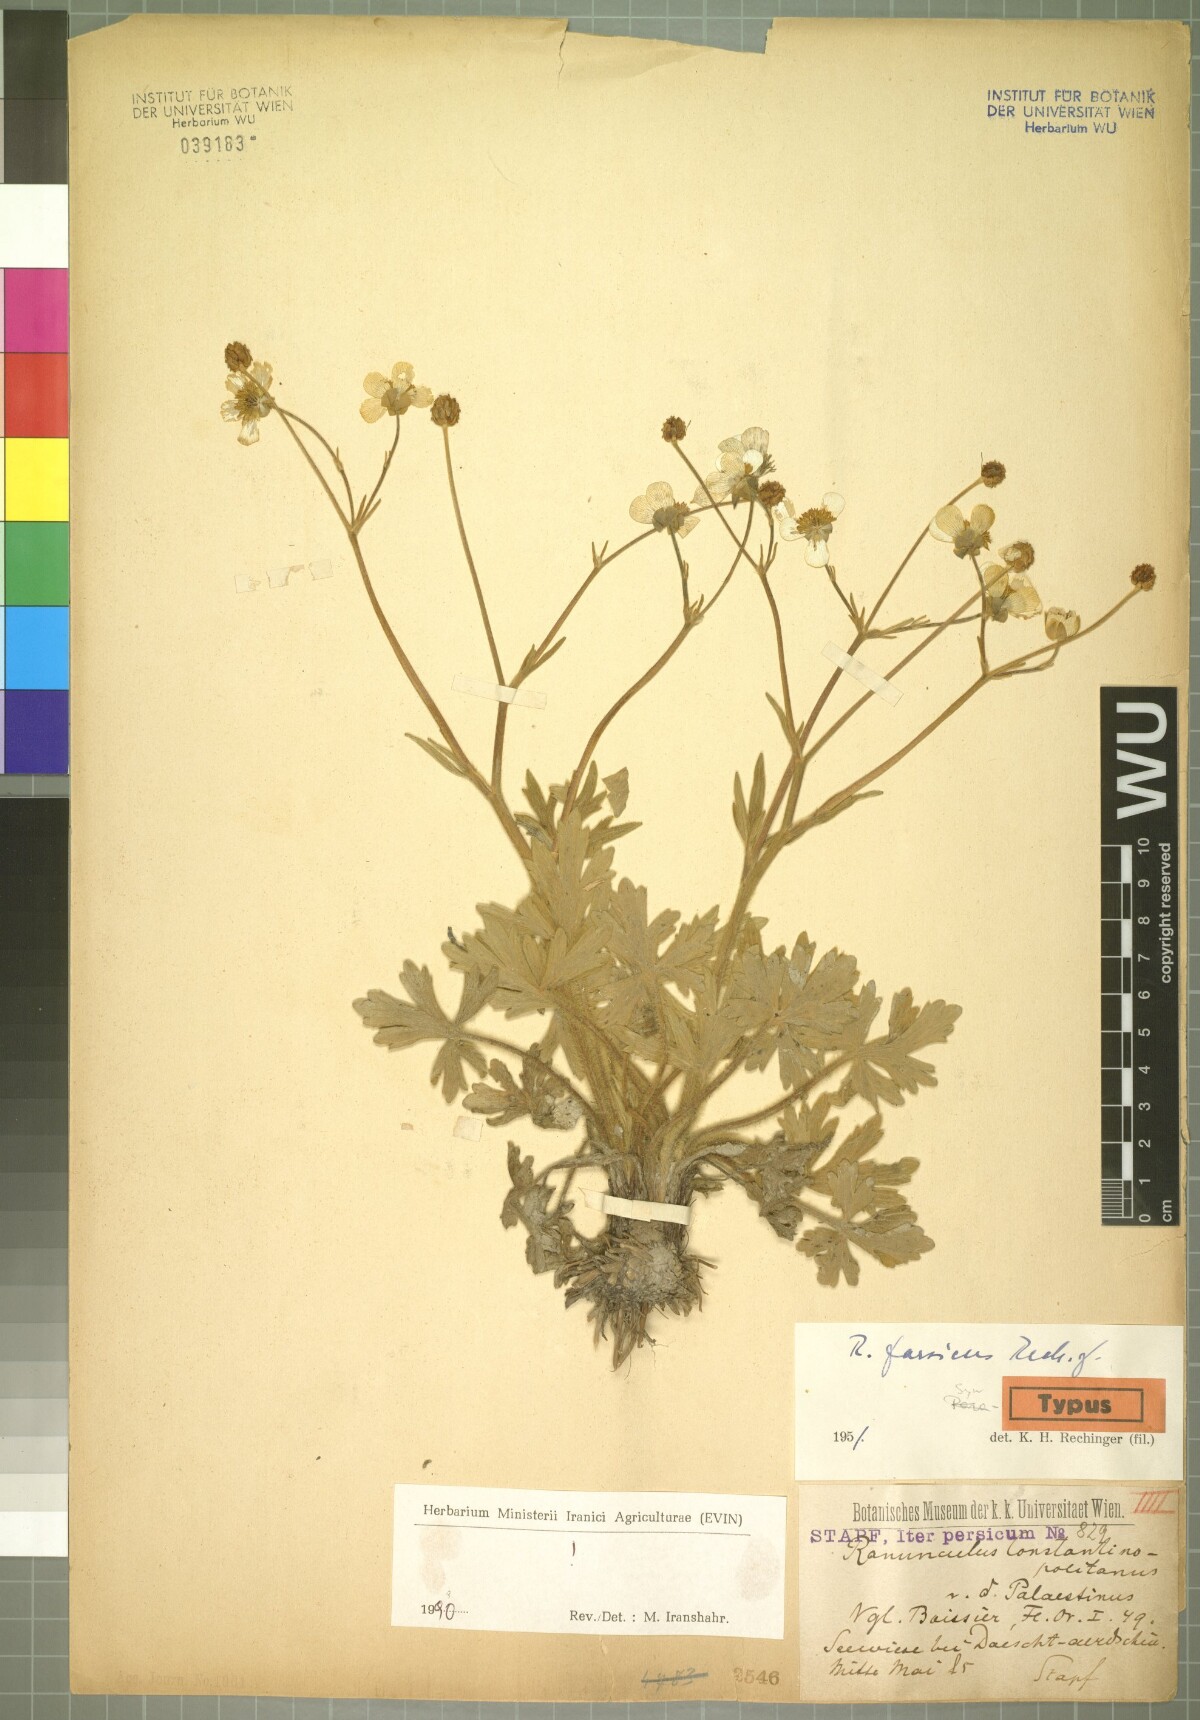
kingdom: Plantae
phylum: Tracheophyta
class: Magnoliopsida
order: Ranunculales
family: Ranunculaceae
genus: Ranunculus
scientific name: Ranunculus constantinopolitanus
